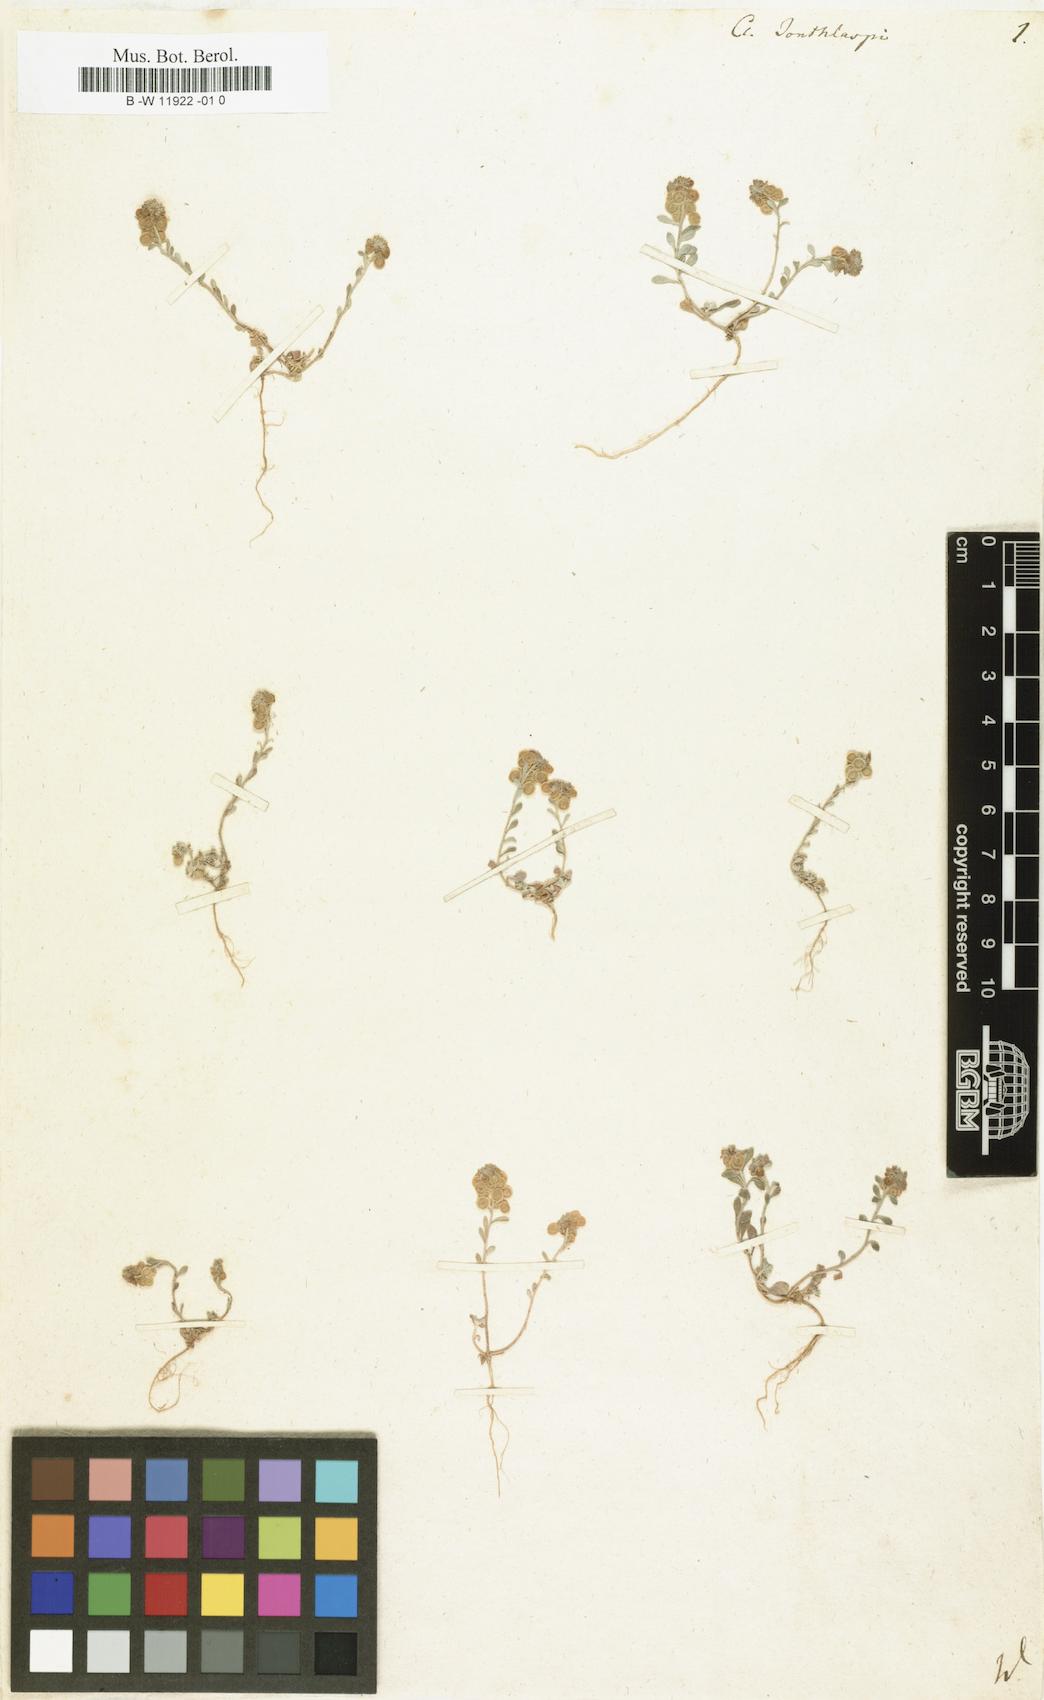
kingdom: Plantae
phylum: Tracheophyta
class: Magnoliopsida
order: Brassicales
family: Brassicaceae
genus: Clypeola
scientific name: Clypeola jonthlaspi
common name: Disk cress
